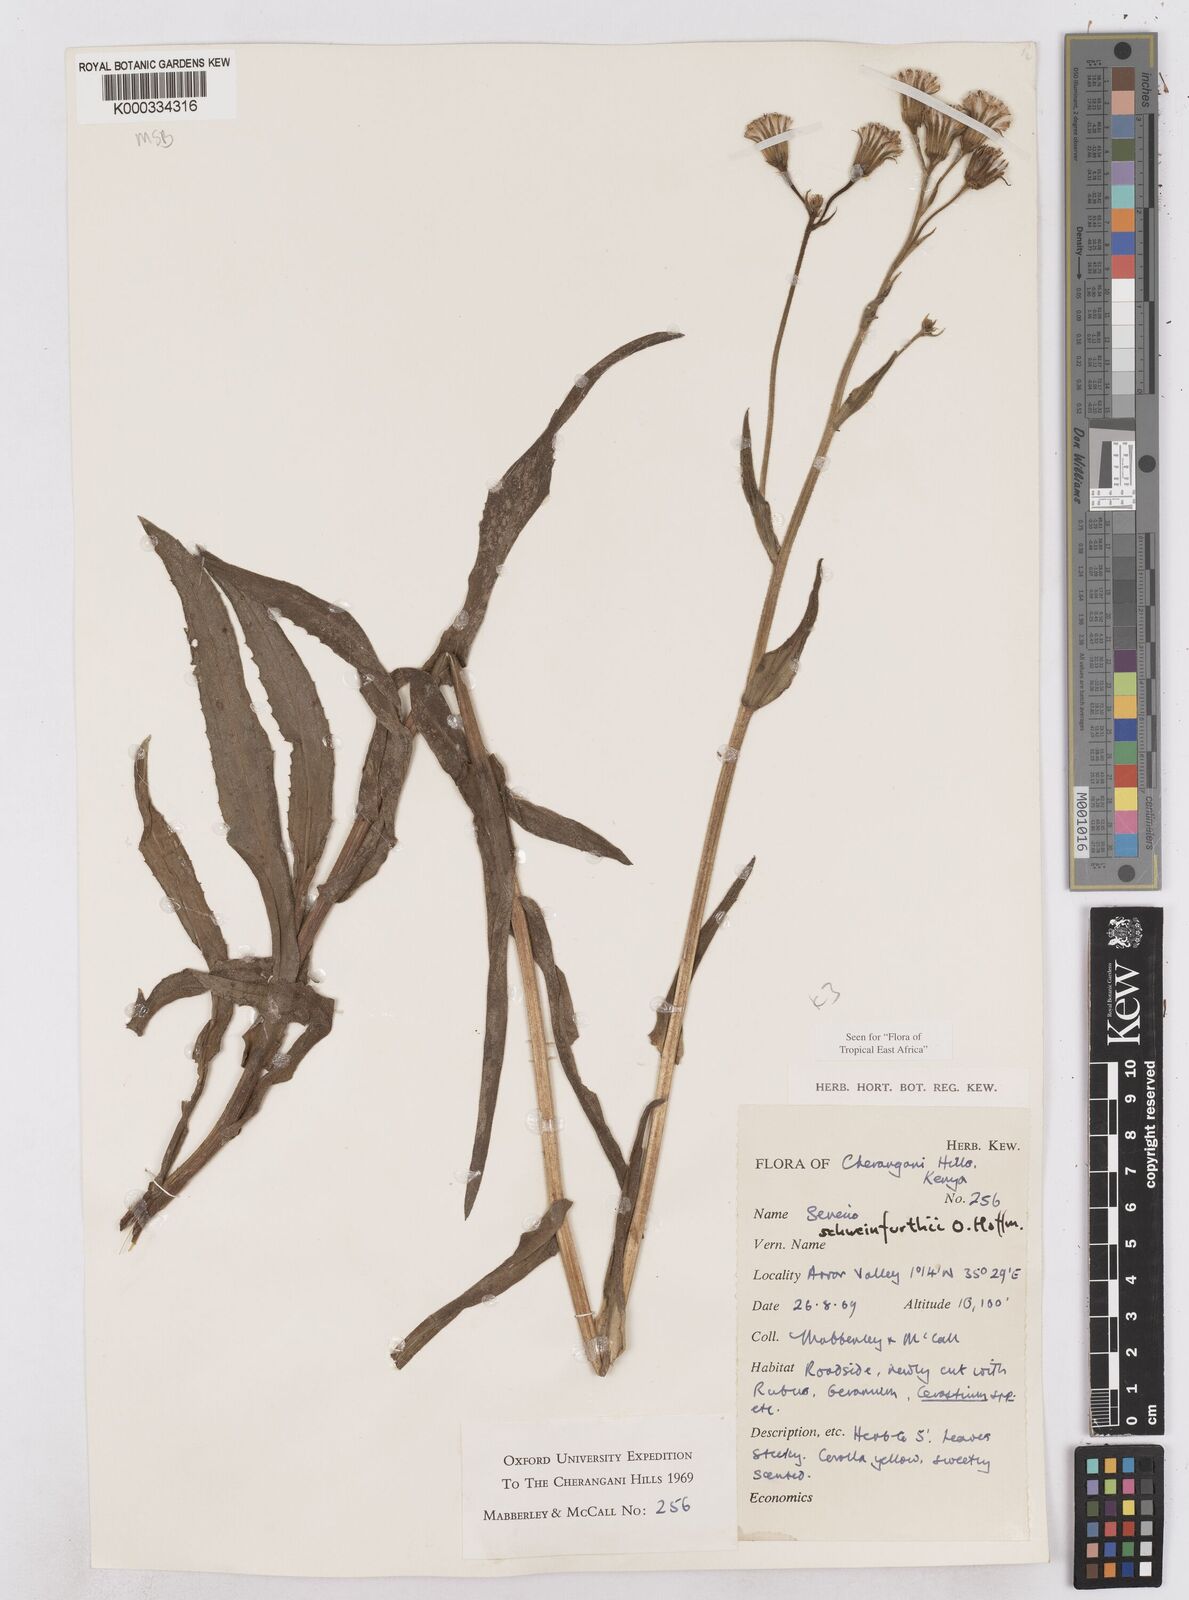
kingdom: Plantae
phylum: Tracheophyta
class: Magnoliopsida
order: Asterales
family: Asteraceae
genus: Senecio
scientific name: Senecio schweinfurthii
